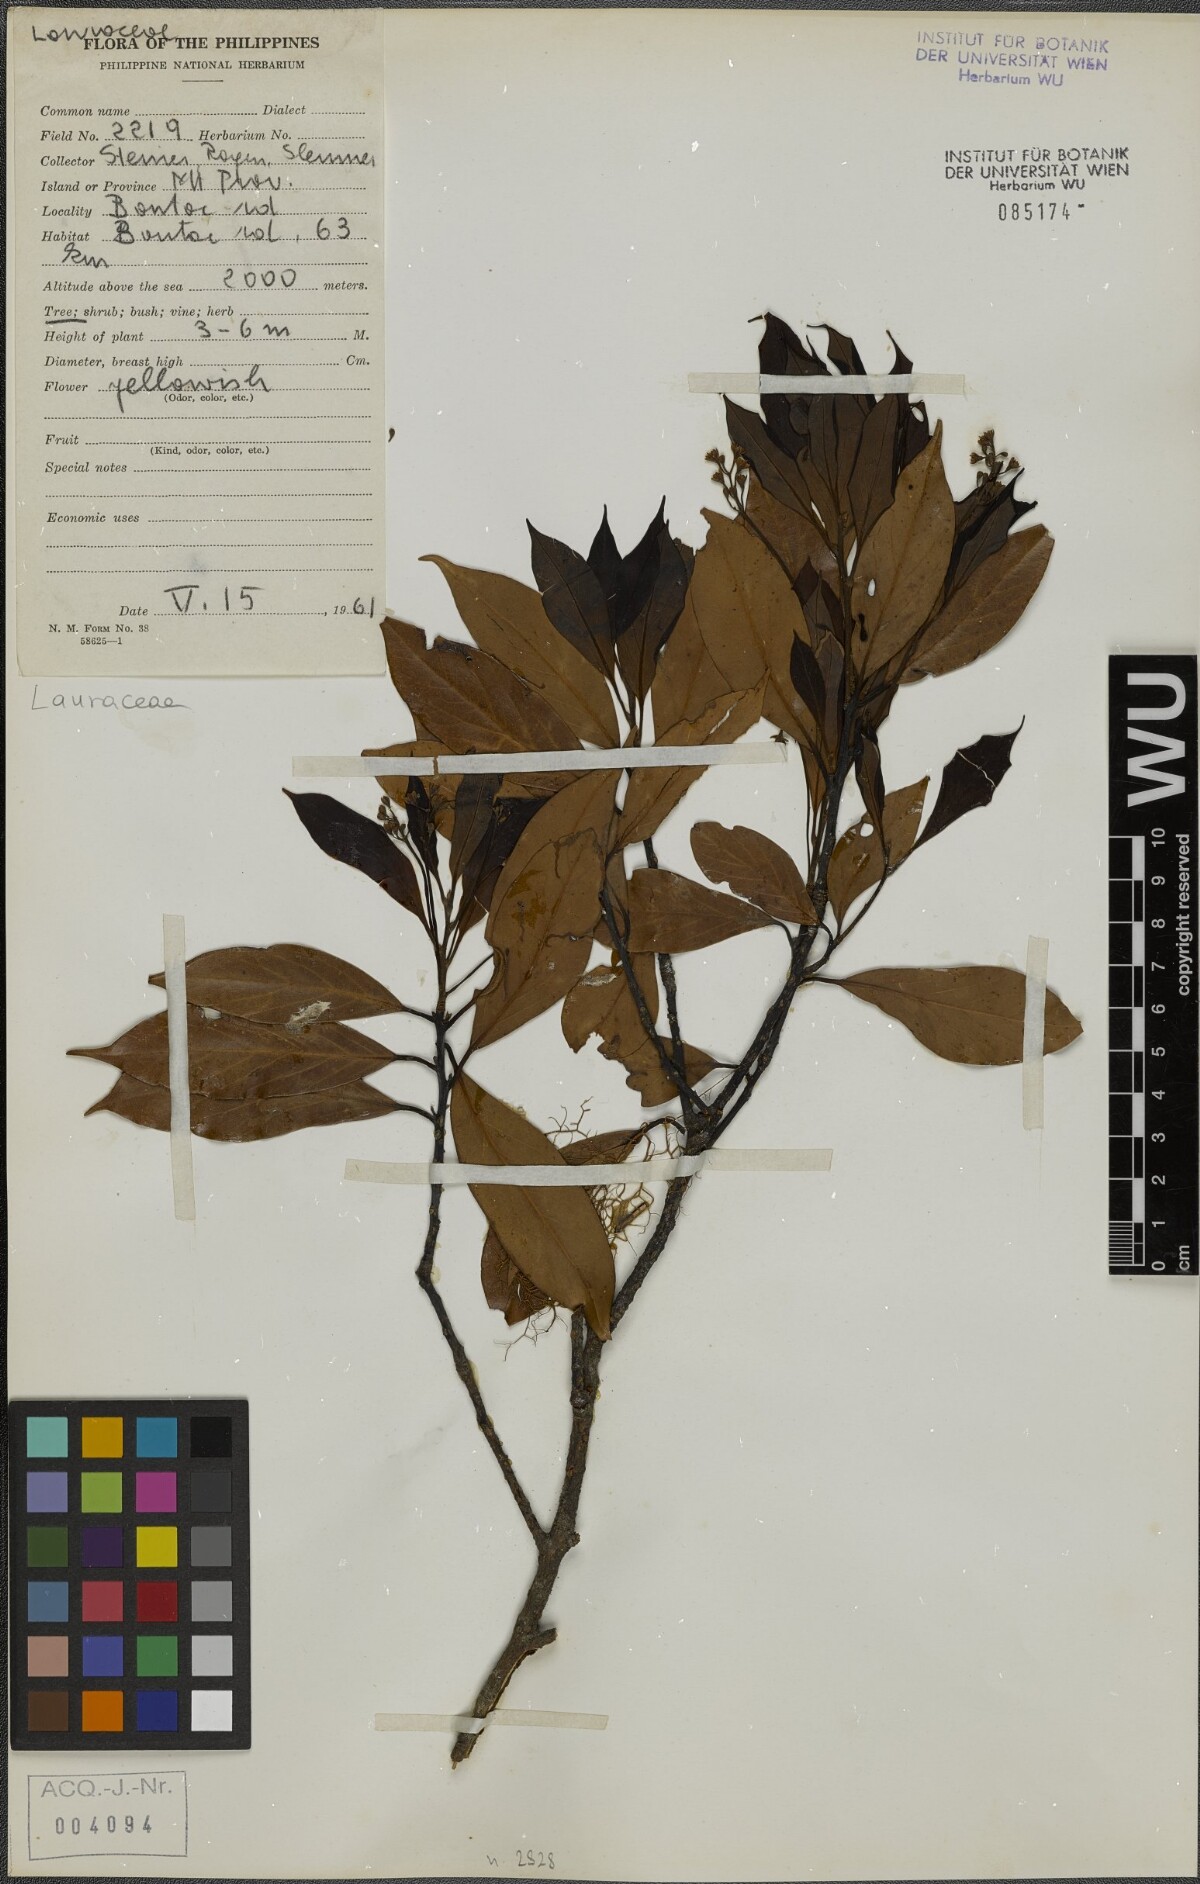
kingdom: Plantae
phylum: Tracheophyta
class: Magnoliopsida
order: Laurales
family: Lauraceae
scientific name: Lauraceae
